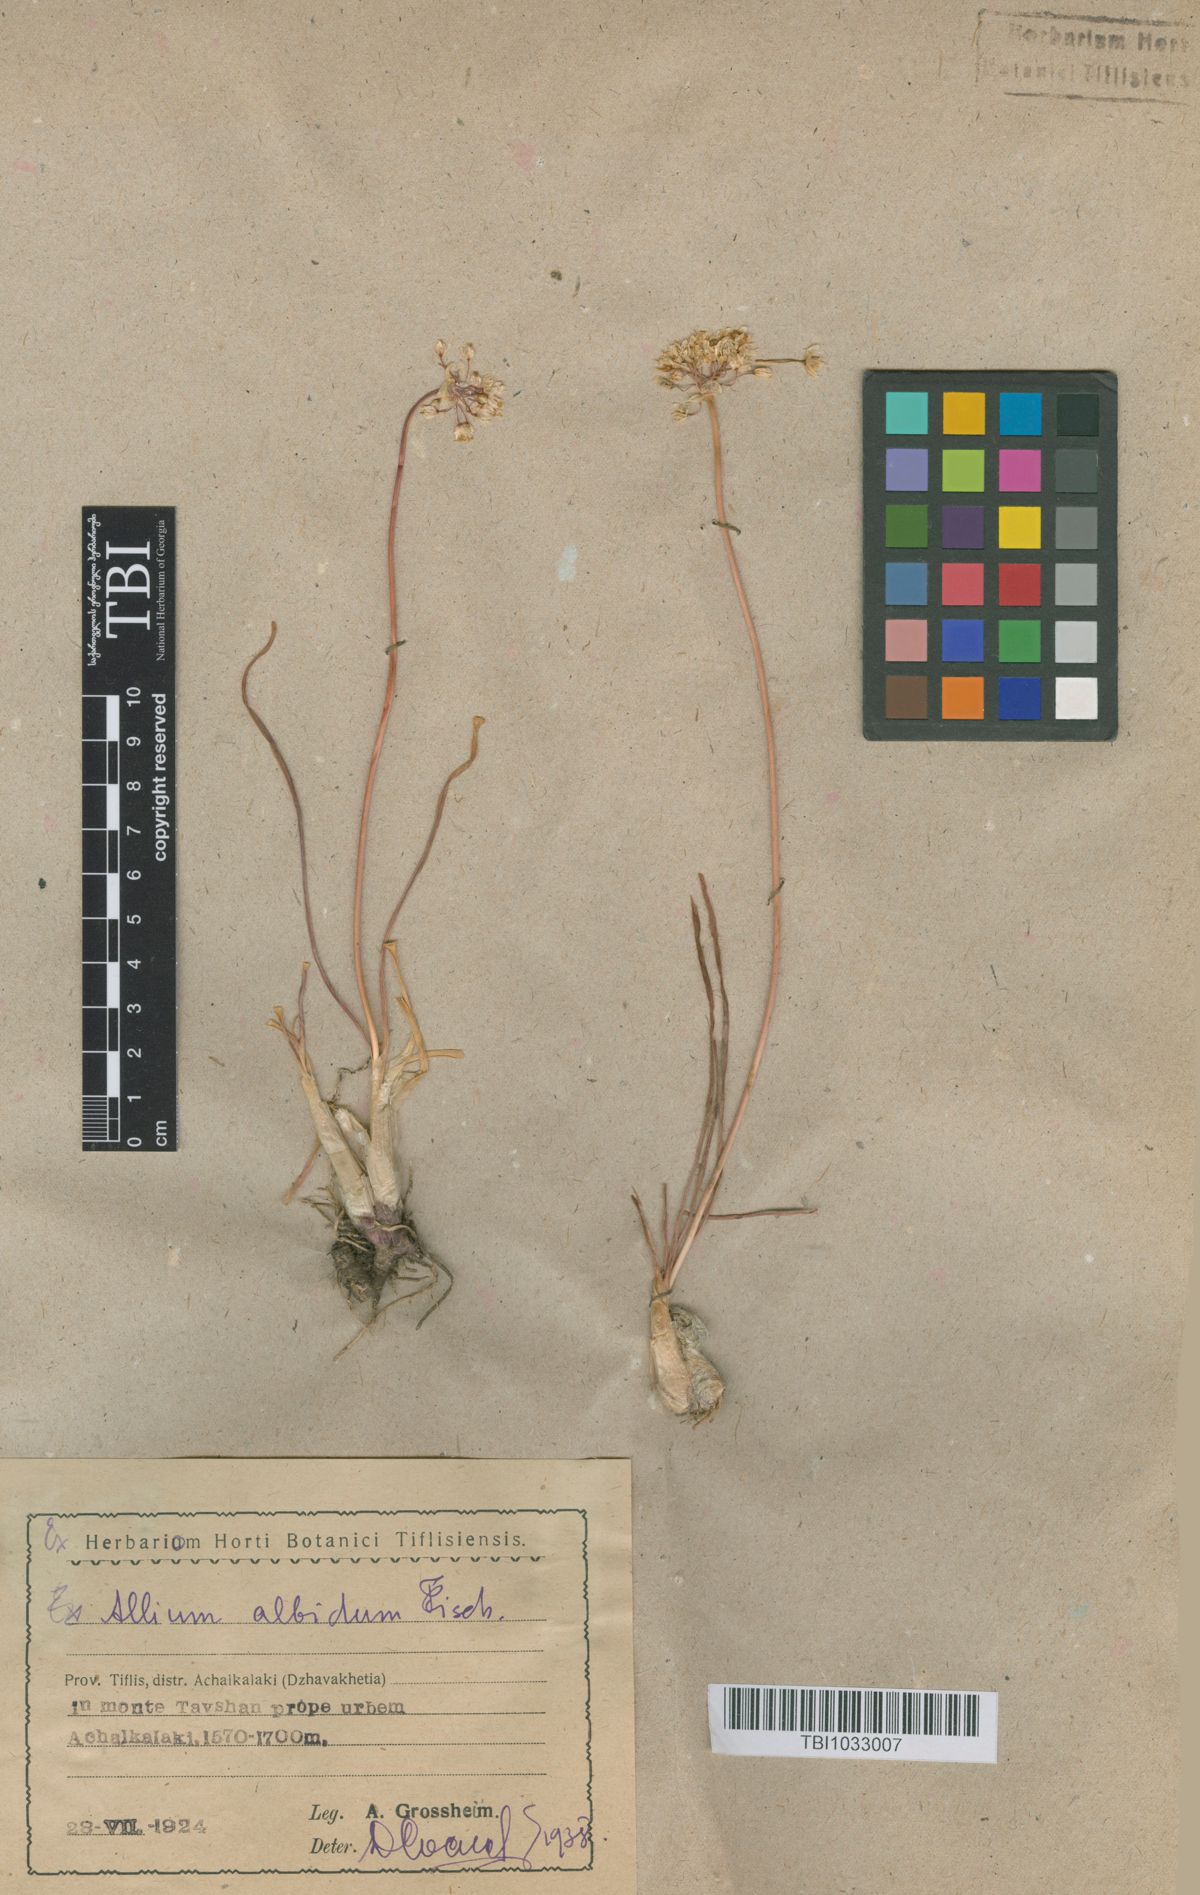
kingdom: Plantae
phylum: Tracheophyta
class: Liliopsida
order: Asparagales
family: Amaryllidaceae
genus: Allium
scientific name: Allium denudatum
